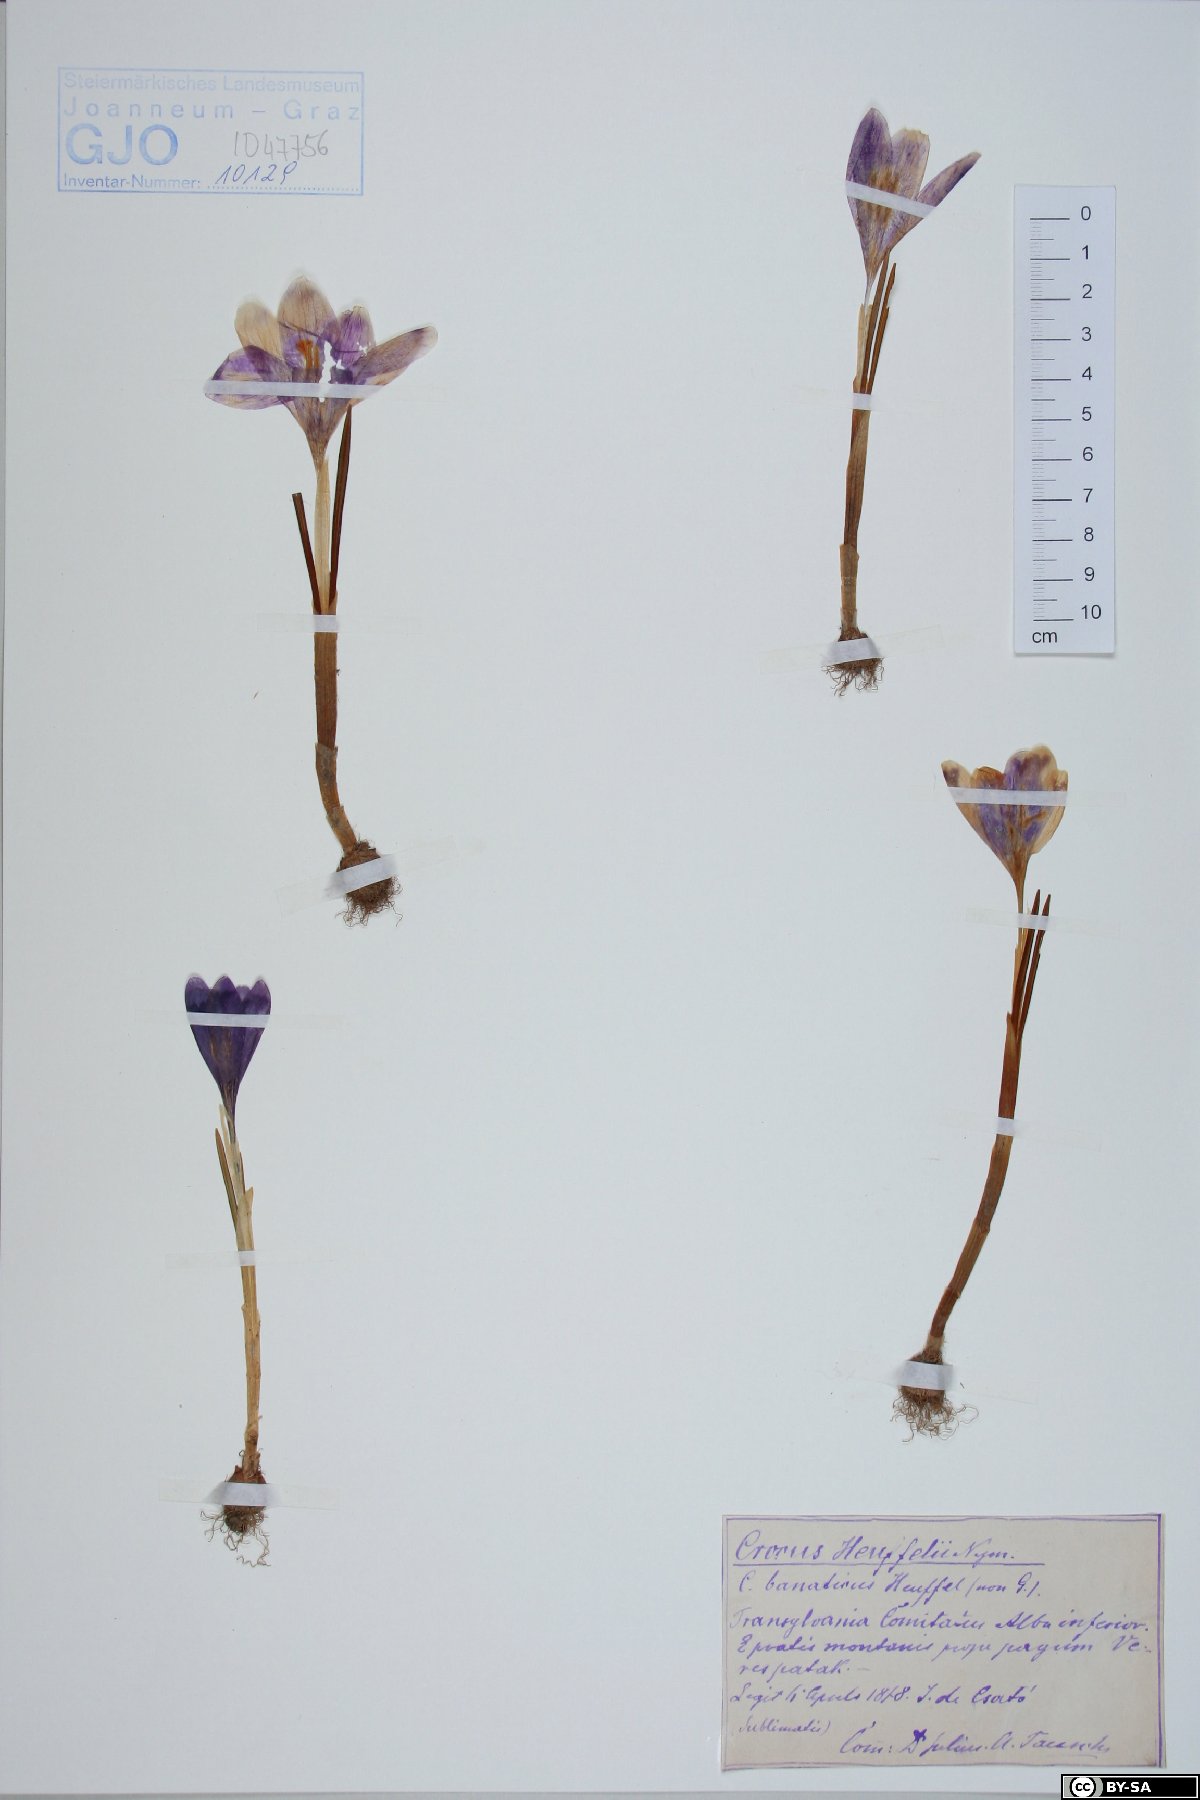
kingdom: Plantae
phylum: Tracheophyta
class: Liliopsida
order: Asparagales
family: Iridaceae
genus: Crocus
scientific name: Crocus heuffelianus
